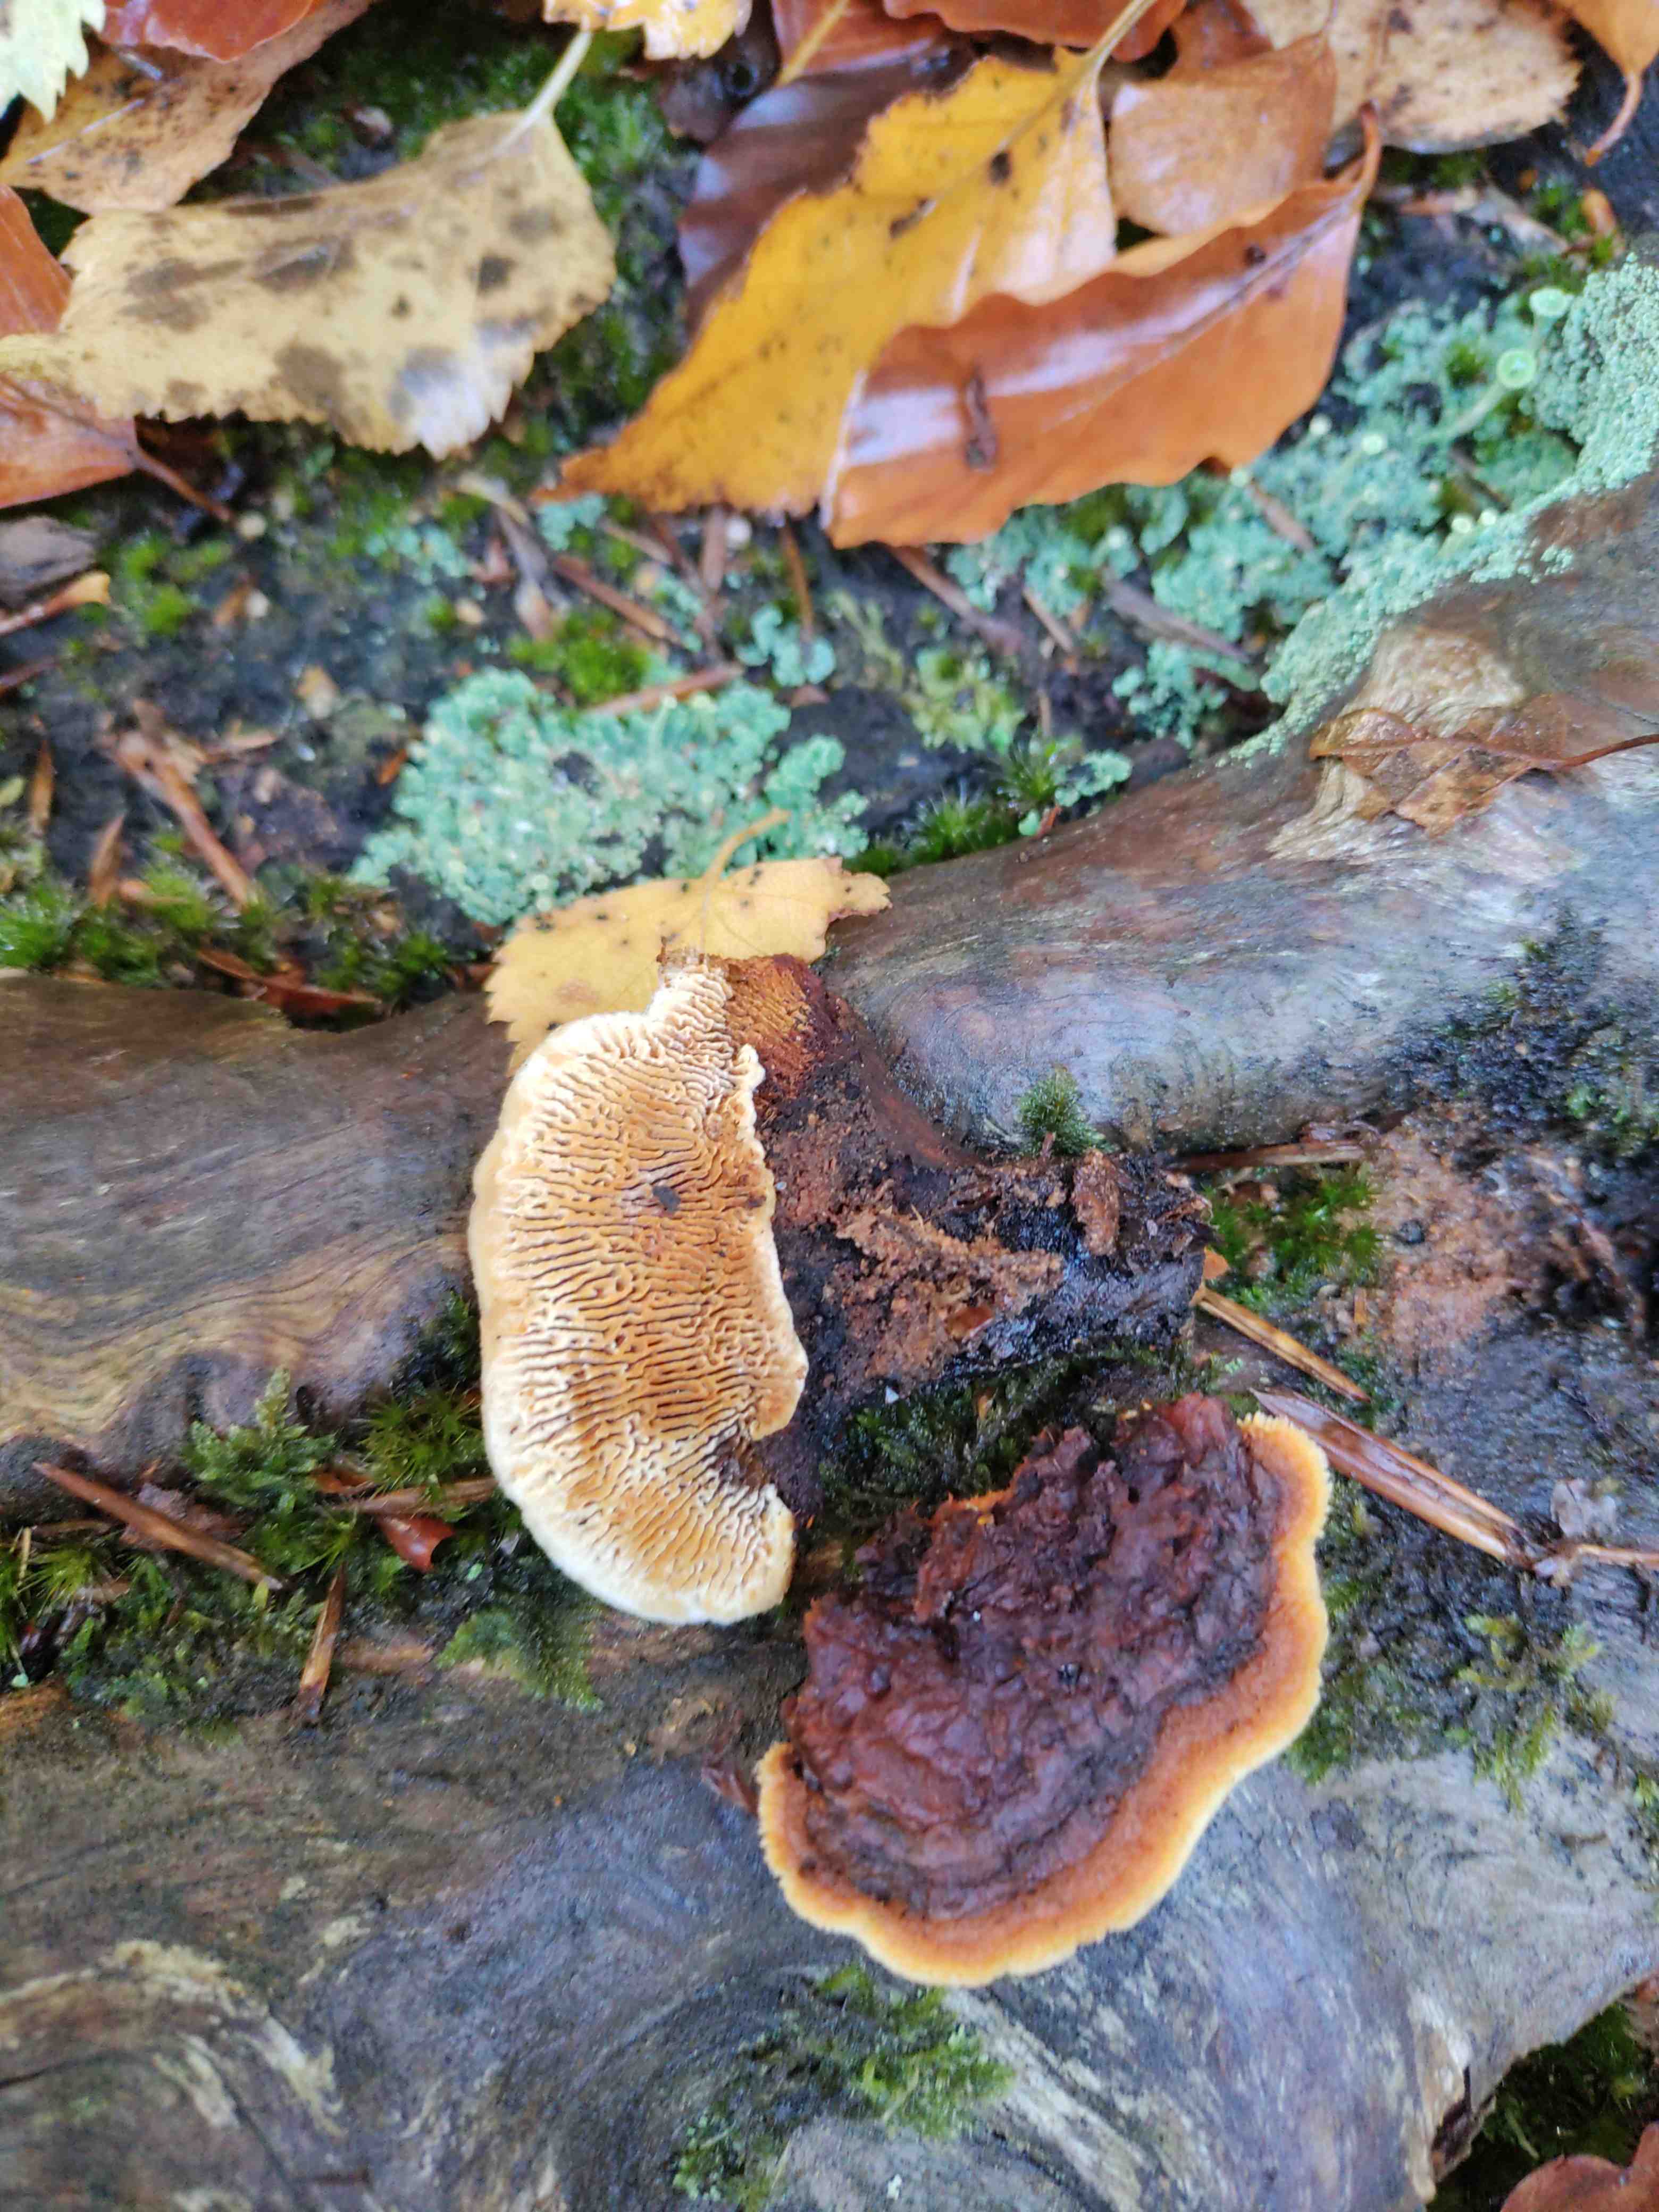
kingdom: Fungi
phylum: Basidiomycota
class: Agaricomycetes
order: Gloeophyllales
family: Gloeophyllaceae
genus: Gloeophyllum
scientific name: Gloeophyllum sepiarium
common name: fyrre-korkhat
